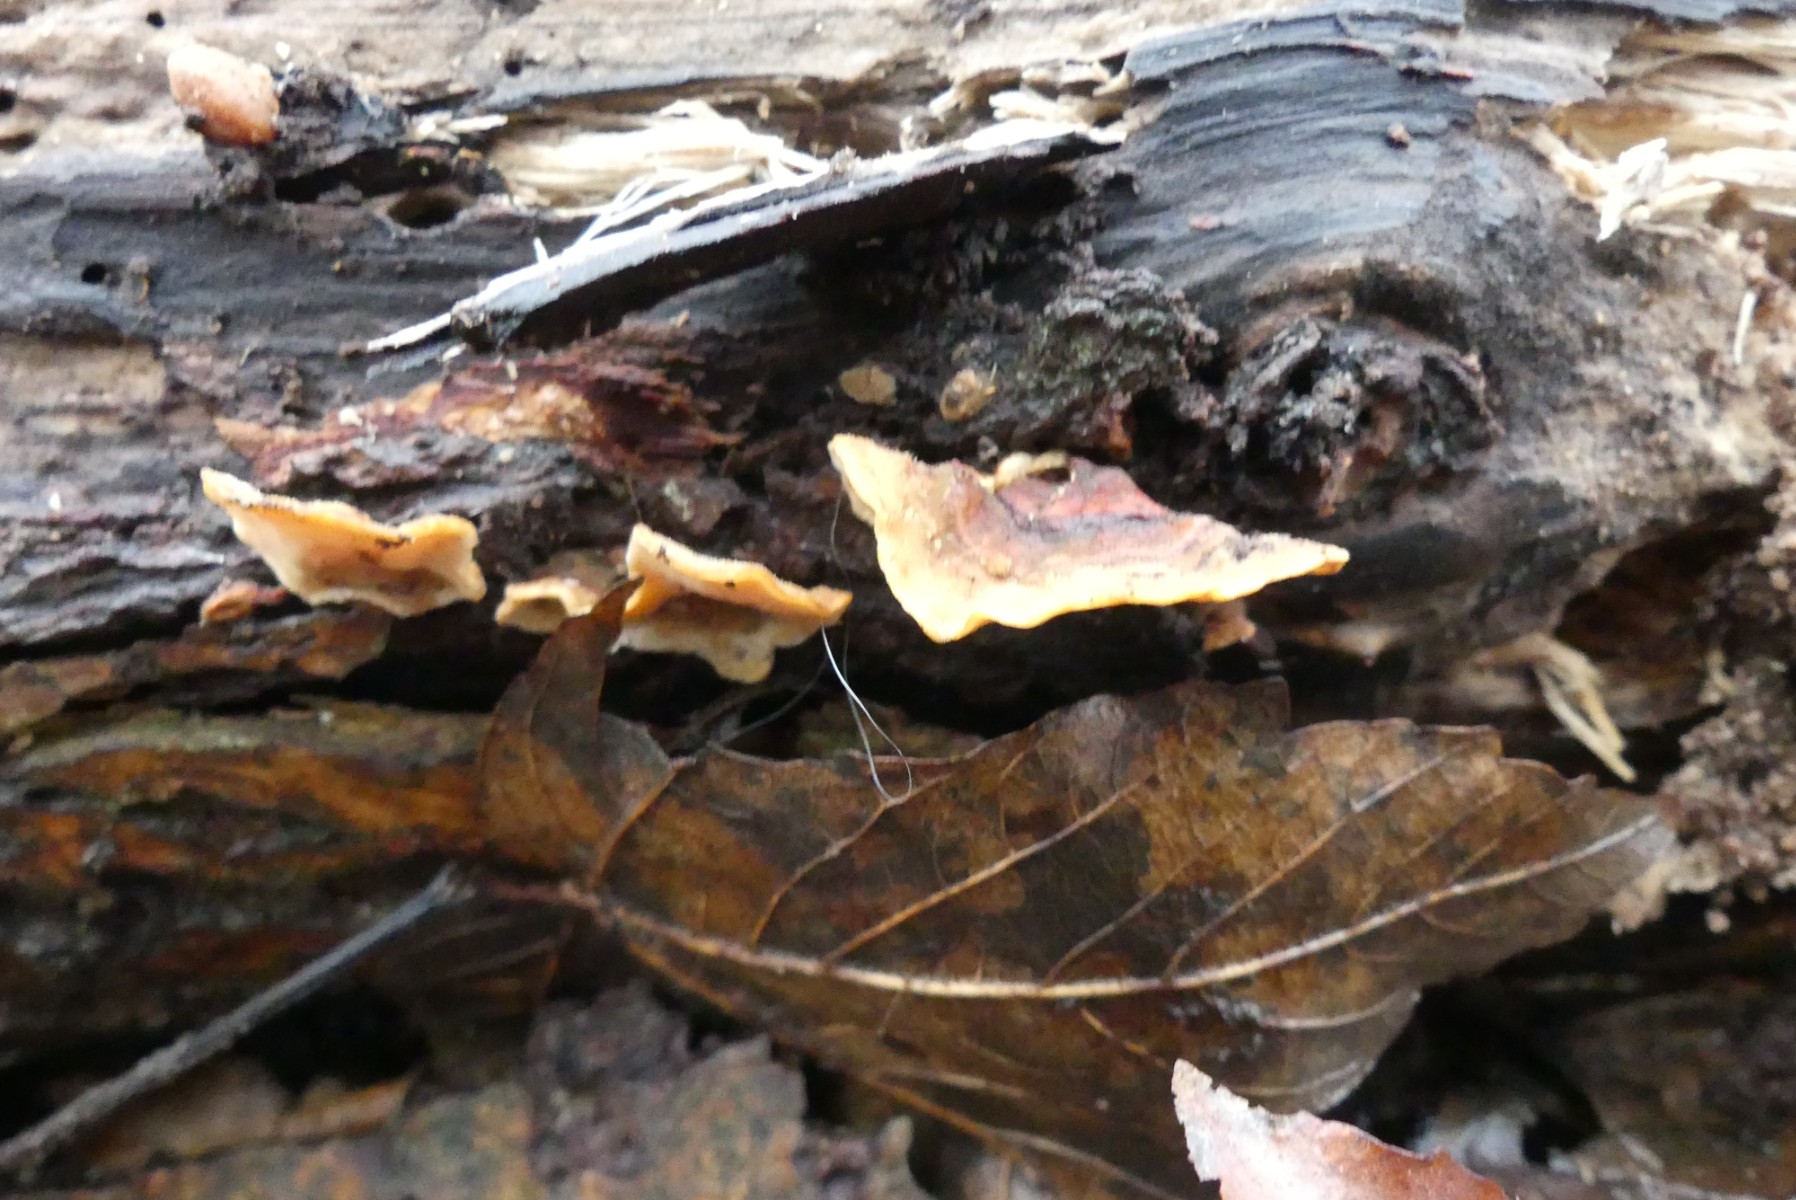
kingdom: Fungi
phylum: Basidiomycota
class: Agaricomycetes
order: Russulales
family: Stereaceae
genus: Stereum
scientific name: Stereum hirsutum
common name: håret lædersvamp
